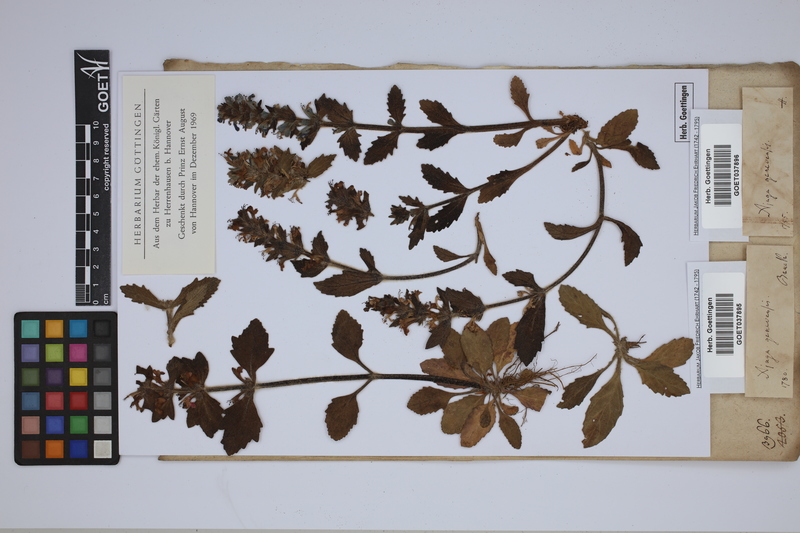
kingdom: Plantae
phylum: Tracheophyta
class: Magnoliopsida
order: Lamiales
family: Lamiaceae
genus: Ajuga
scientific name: Ajuga genevensis
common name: Blue bugle
